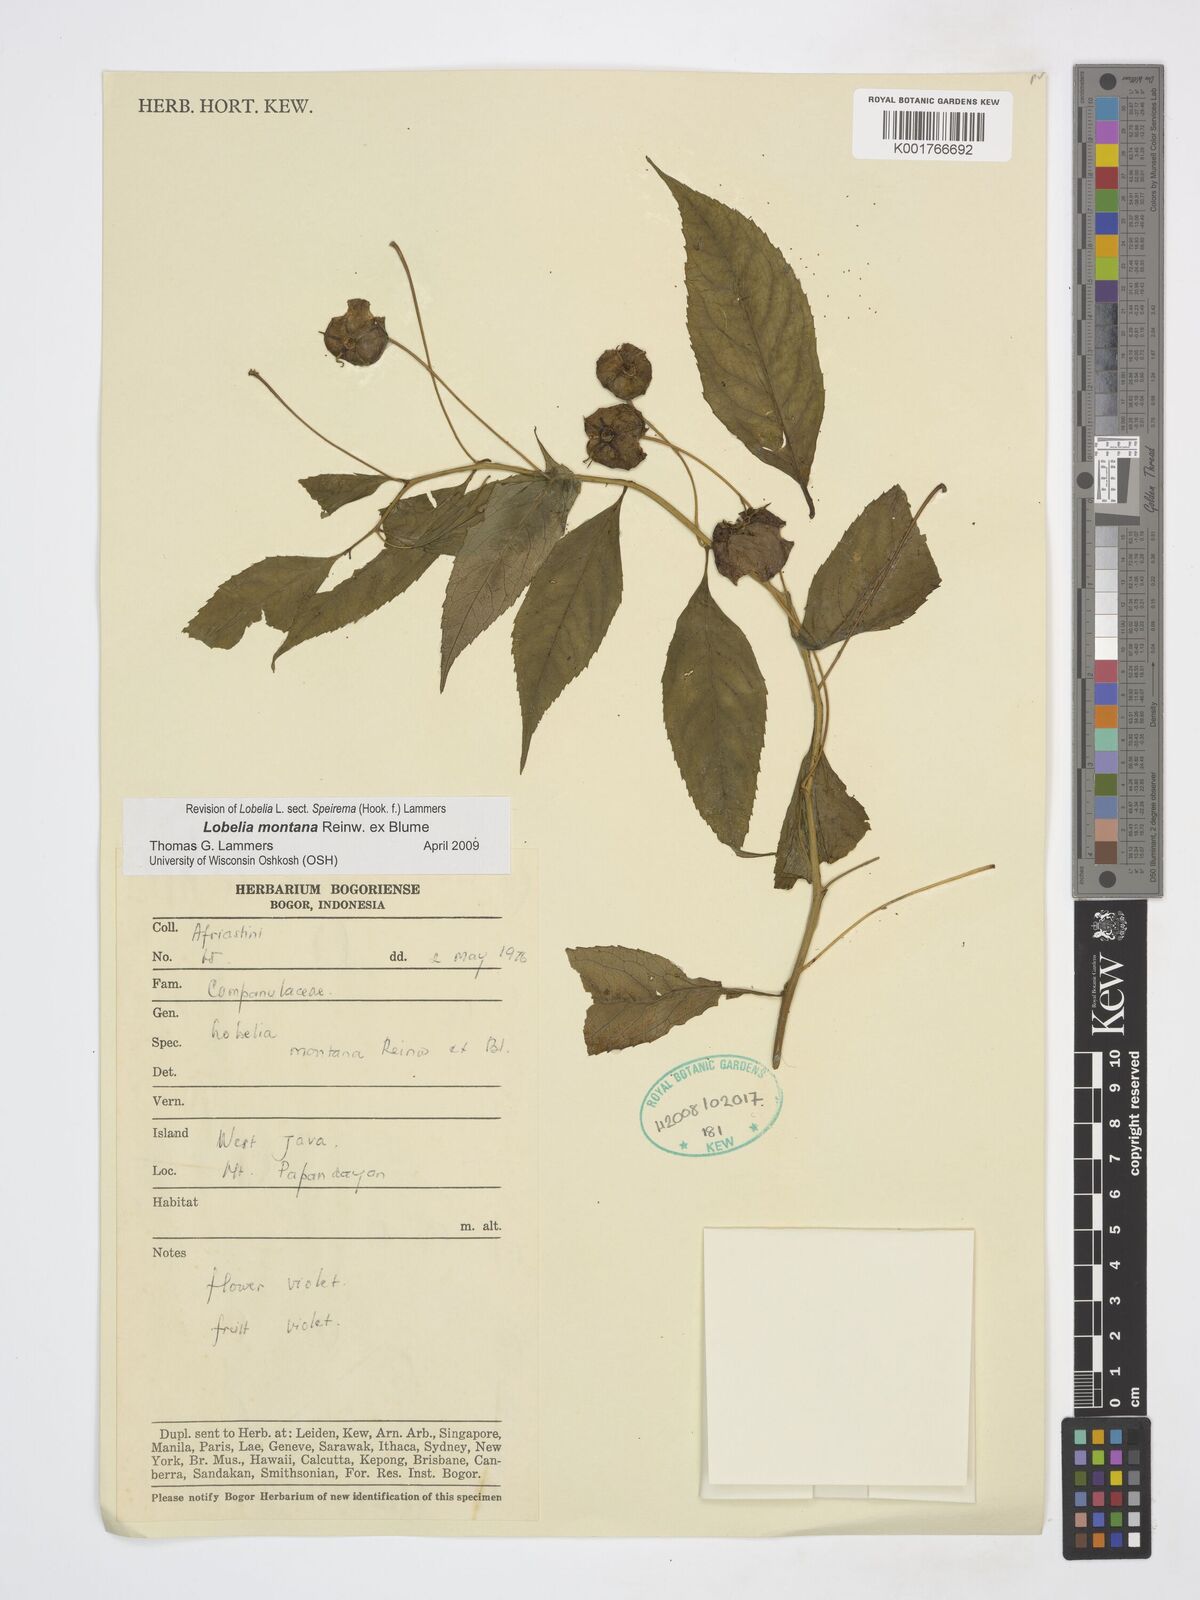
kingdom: Plantae
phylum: Tracheophyta
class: Magnoliopsida
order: Asterales
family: Campanulaceae
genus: Lobelia
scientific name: Lobelia montana
